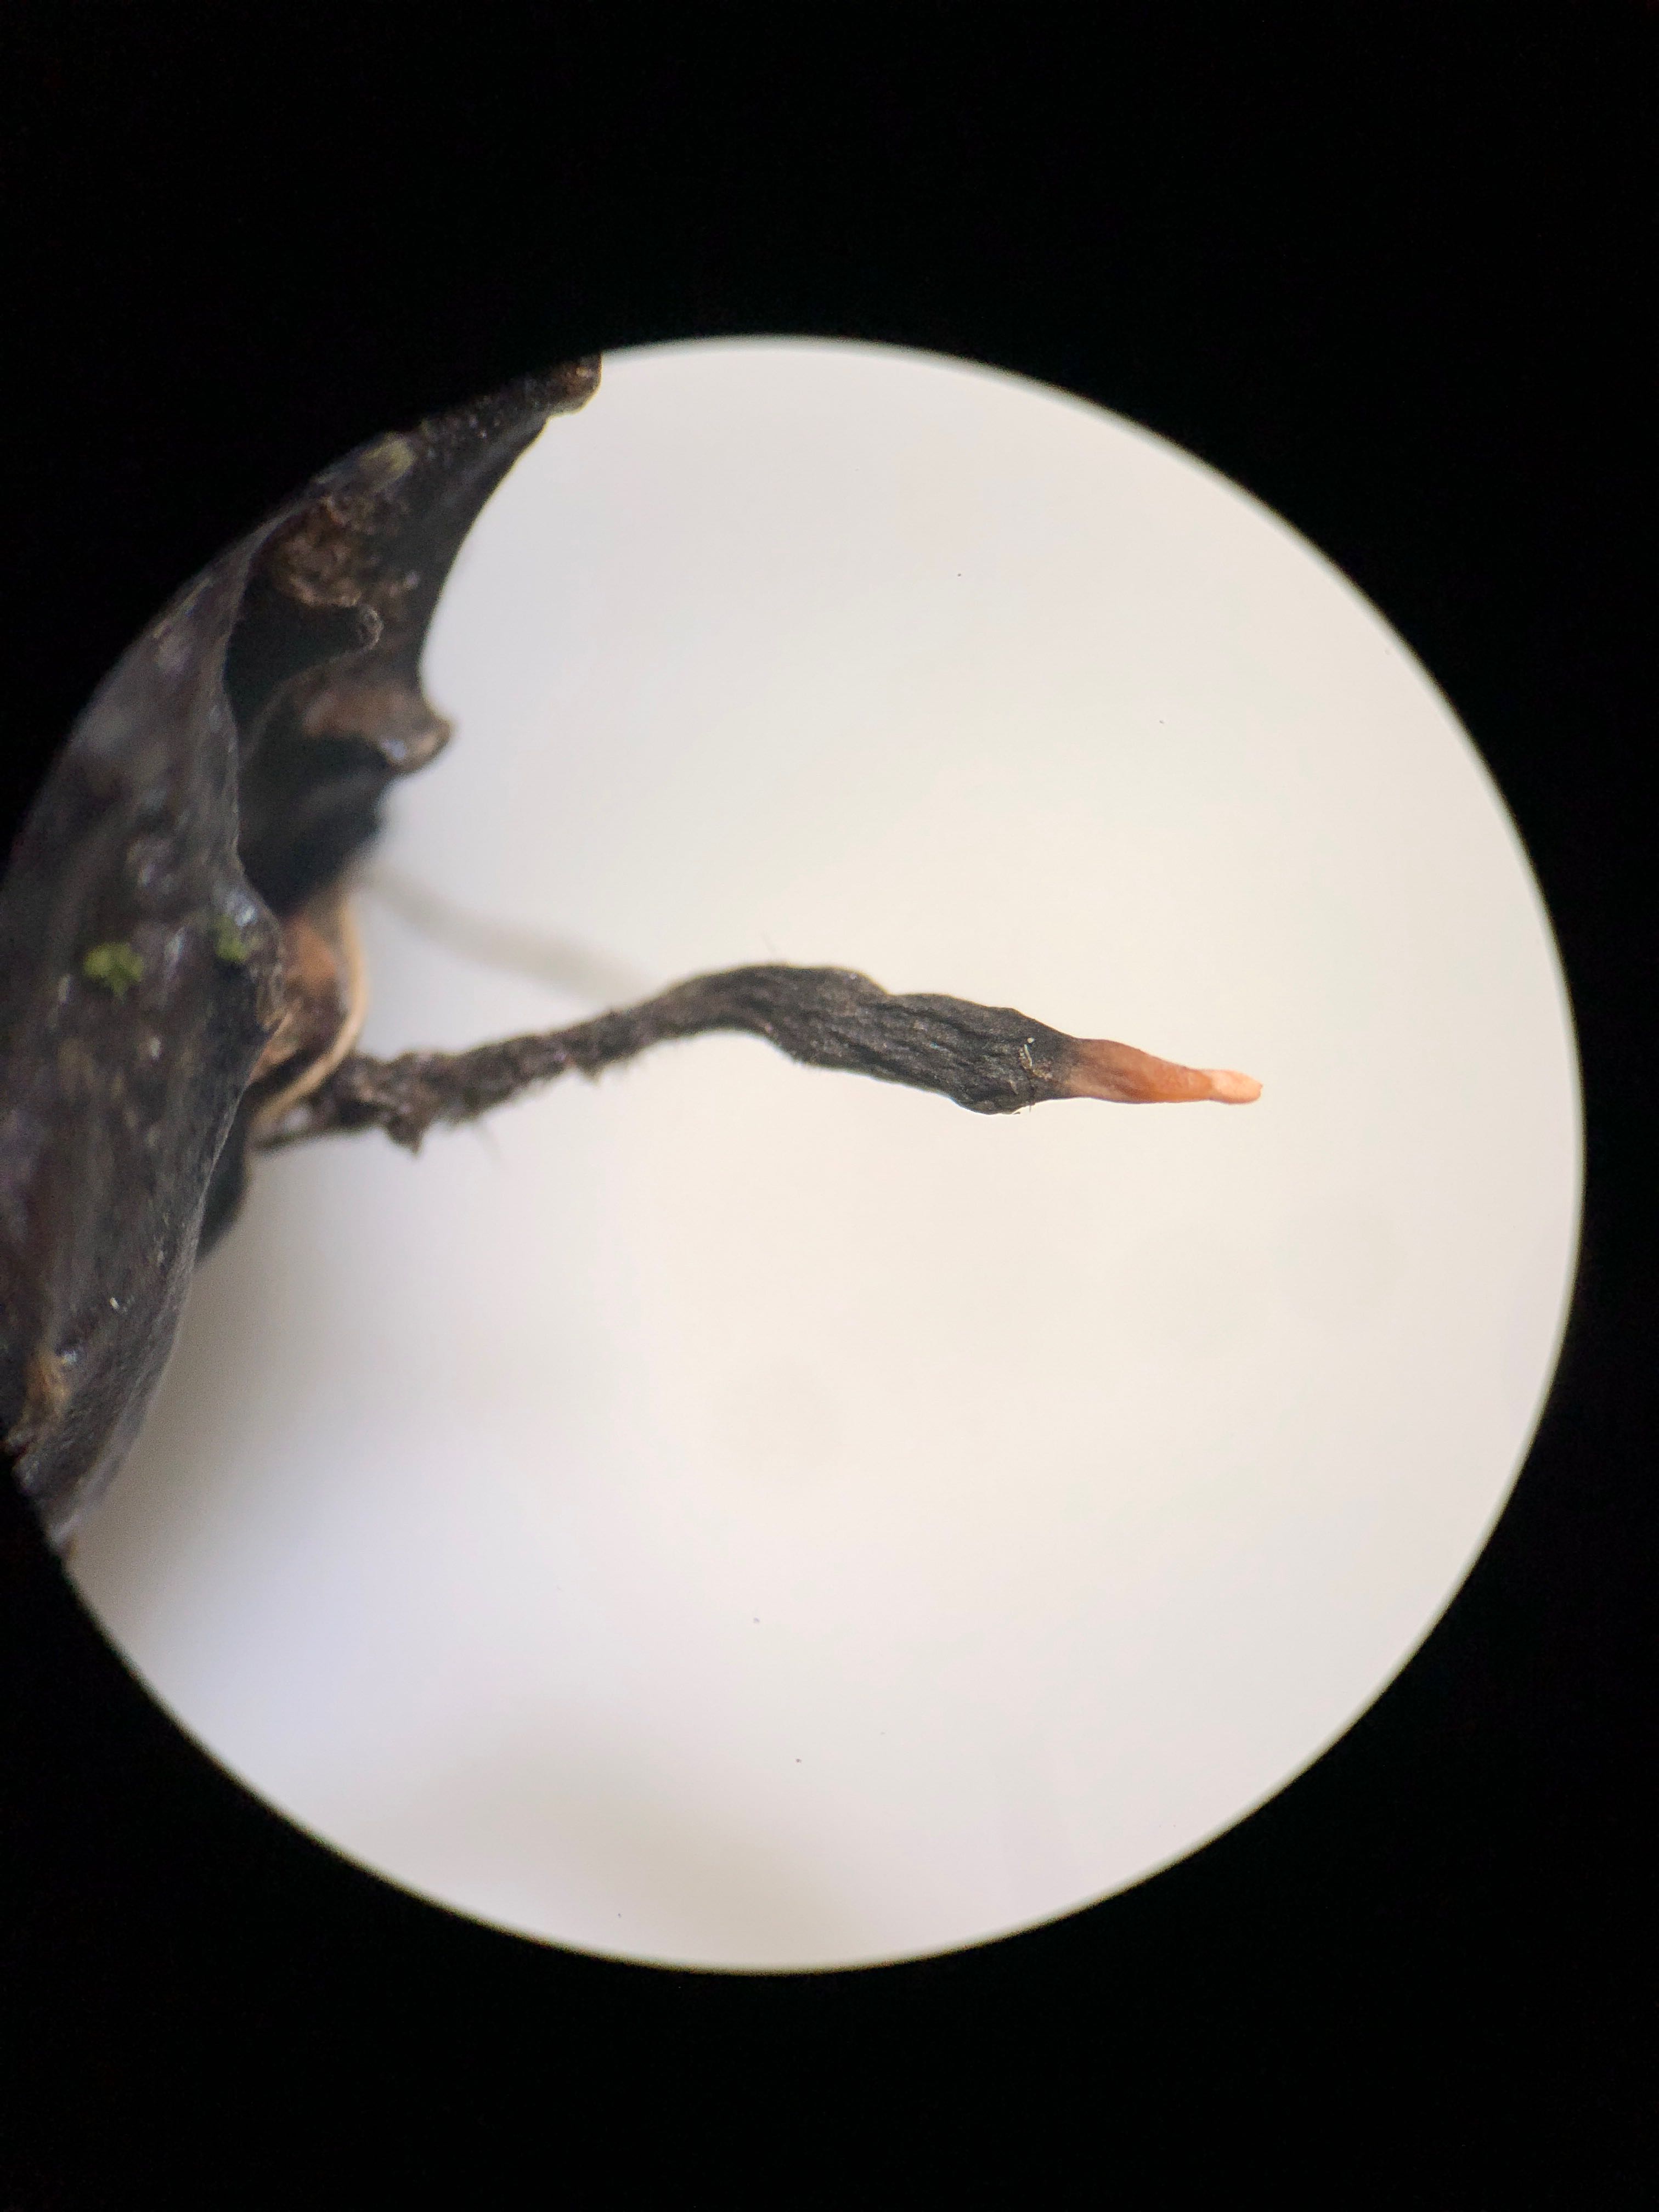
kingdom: Fungi
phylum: Ascomycota
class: Sordariomycetes
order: Xylariales
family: Xylariaceae
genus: Xylaria
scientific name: Xylaria carpophila
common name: bogskål-stødsvamp
